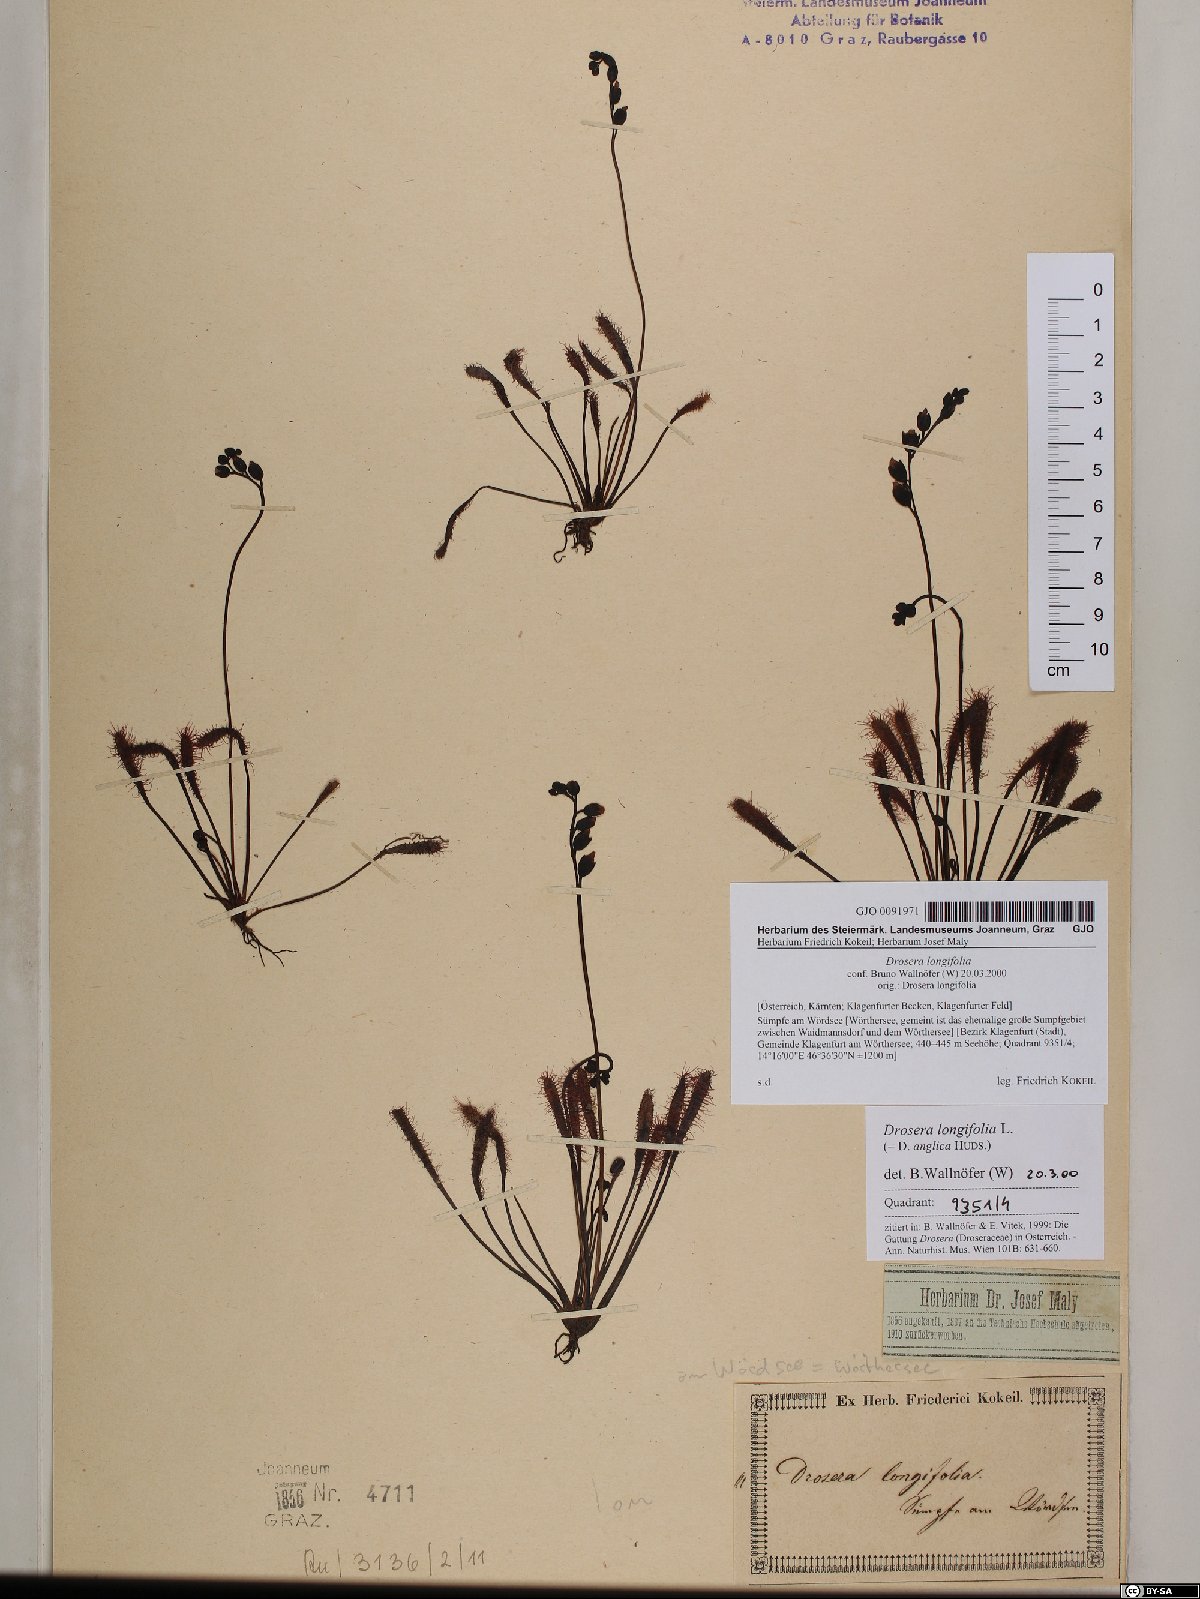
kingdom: Plantae
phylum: Tracheophyta
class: Magnoliopsida
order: Caryophyllales
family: Droseraceae
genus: Drosera
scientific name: Drosera anglica
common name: Great sundew
